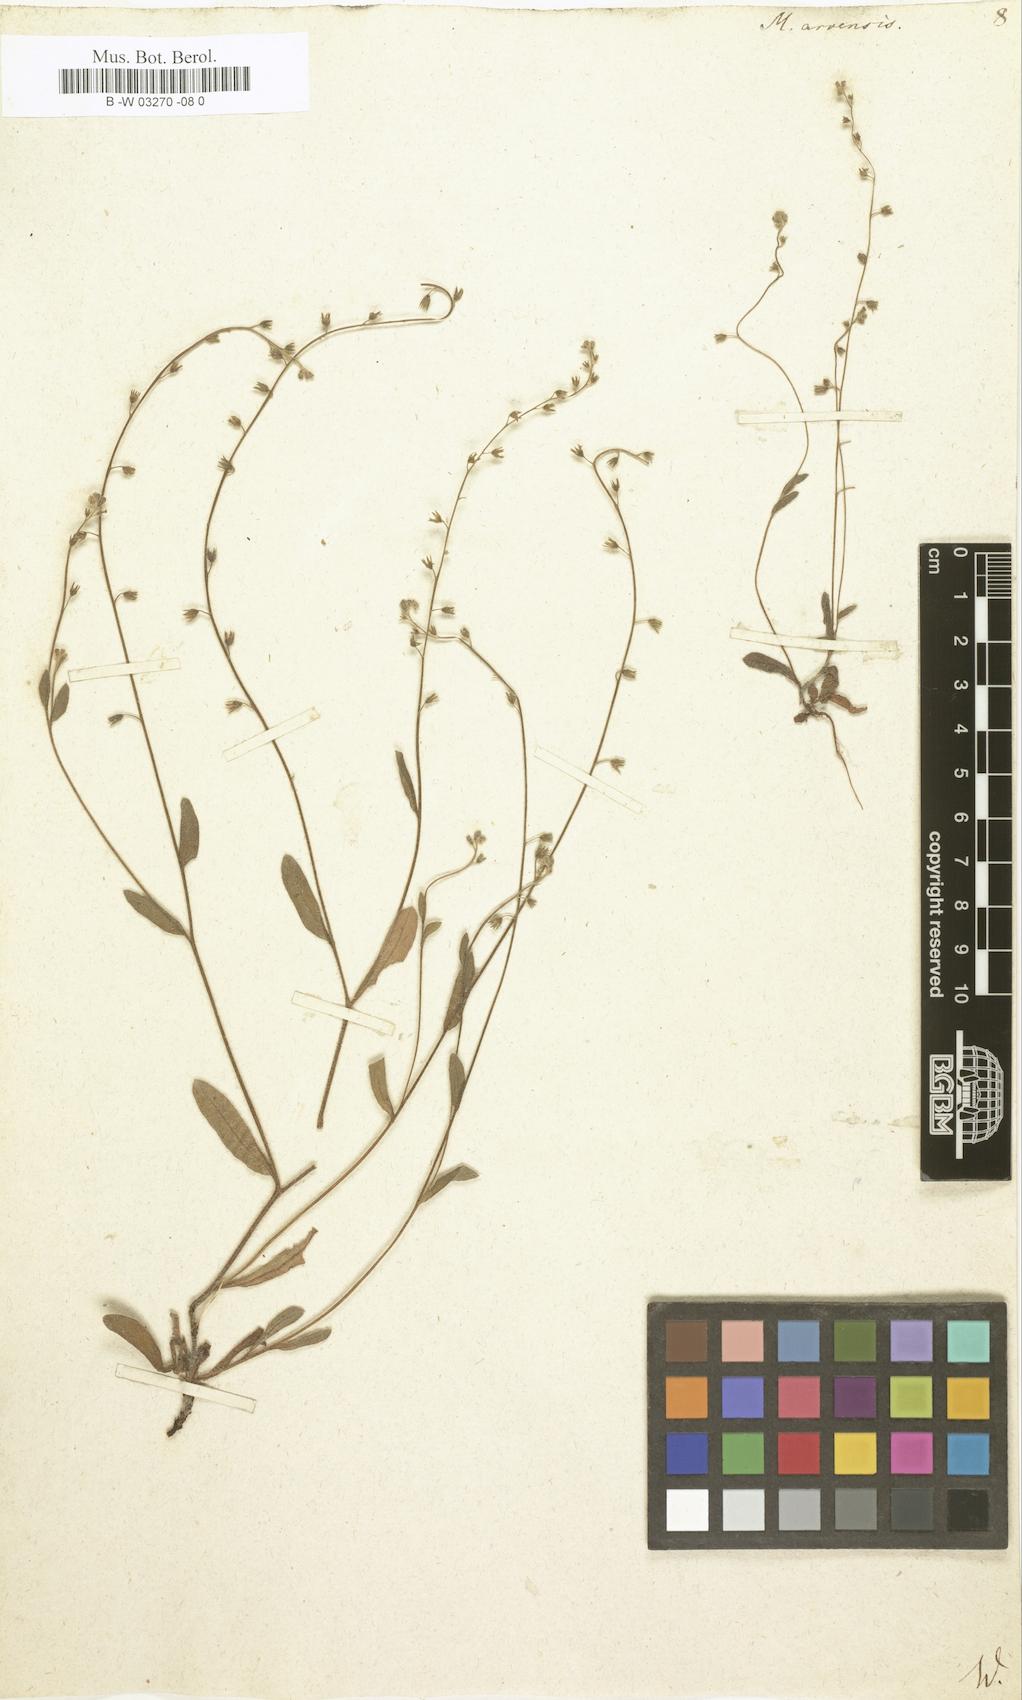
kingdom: Plantae
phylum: Tracheophyta
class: Magnoliopsida
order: Boraginales
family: Boraginaceae
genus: Myosotis
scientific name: Myosotis arvensis
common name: Field forget-me-not
